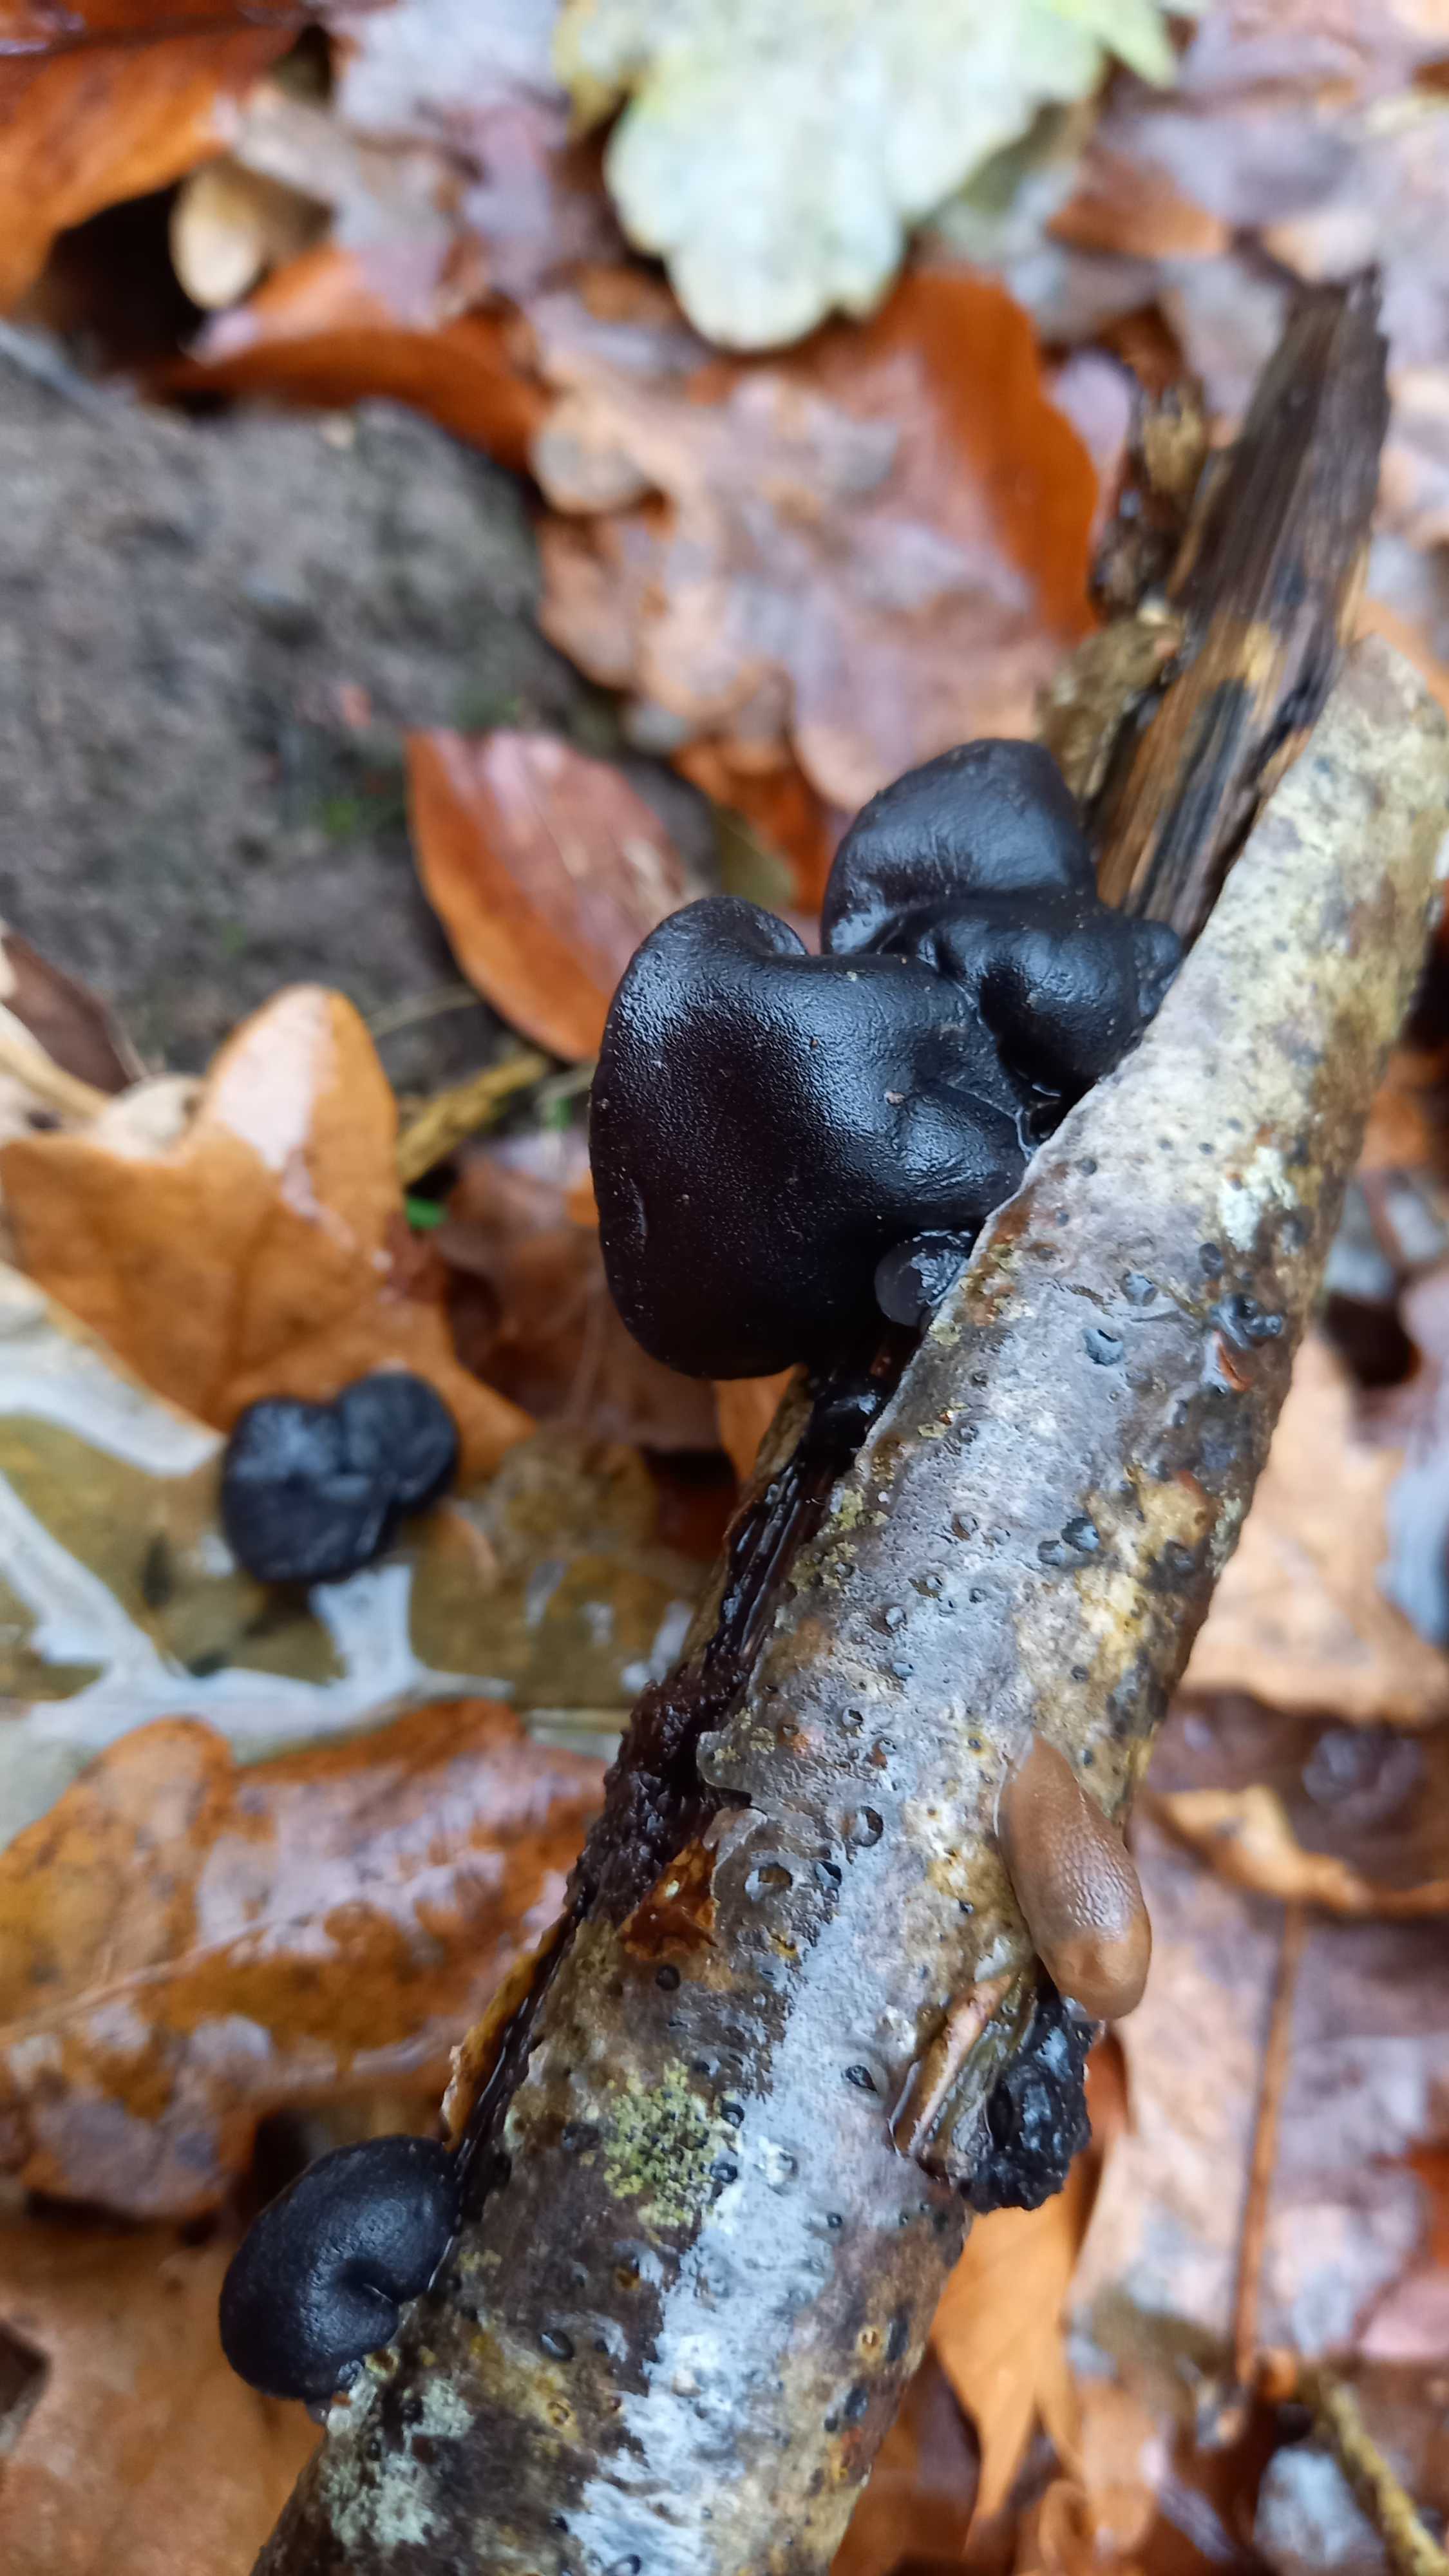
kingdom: Fungi
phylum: Basidiomycota
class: Agaricomycetes
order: Auriculariales
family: Auriculariaceae
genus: Exidia
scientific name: Exidia glandulosa
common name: ege-bævretop
